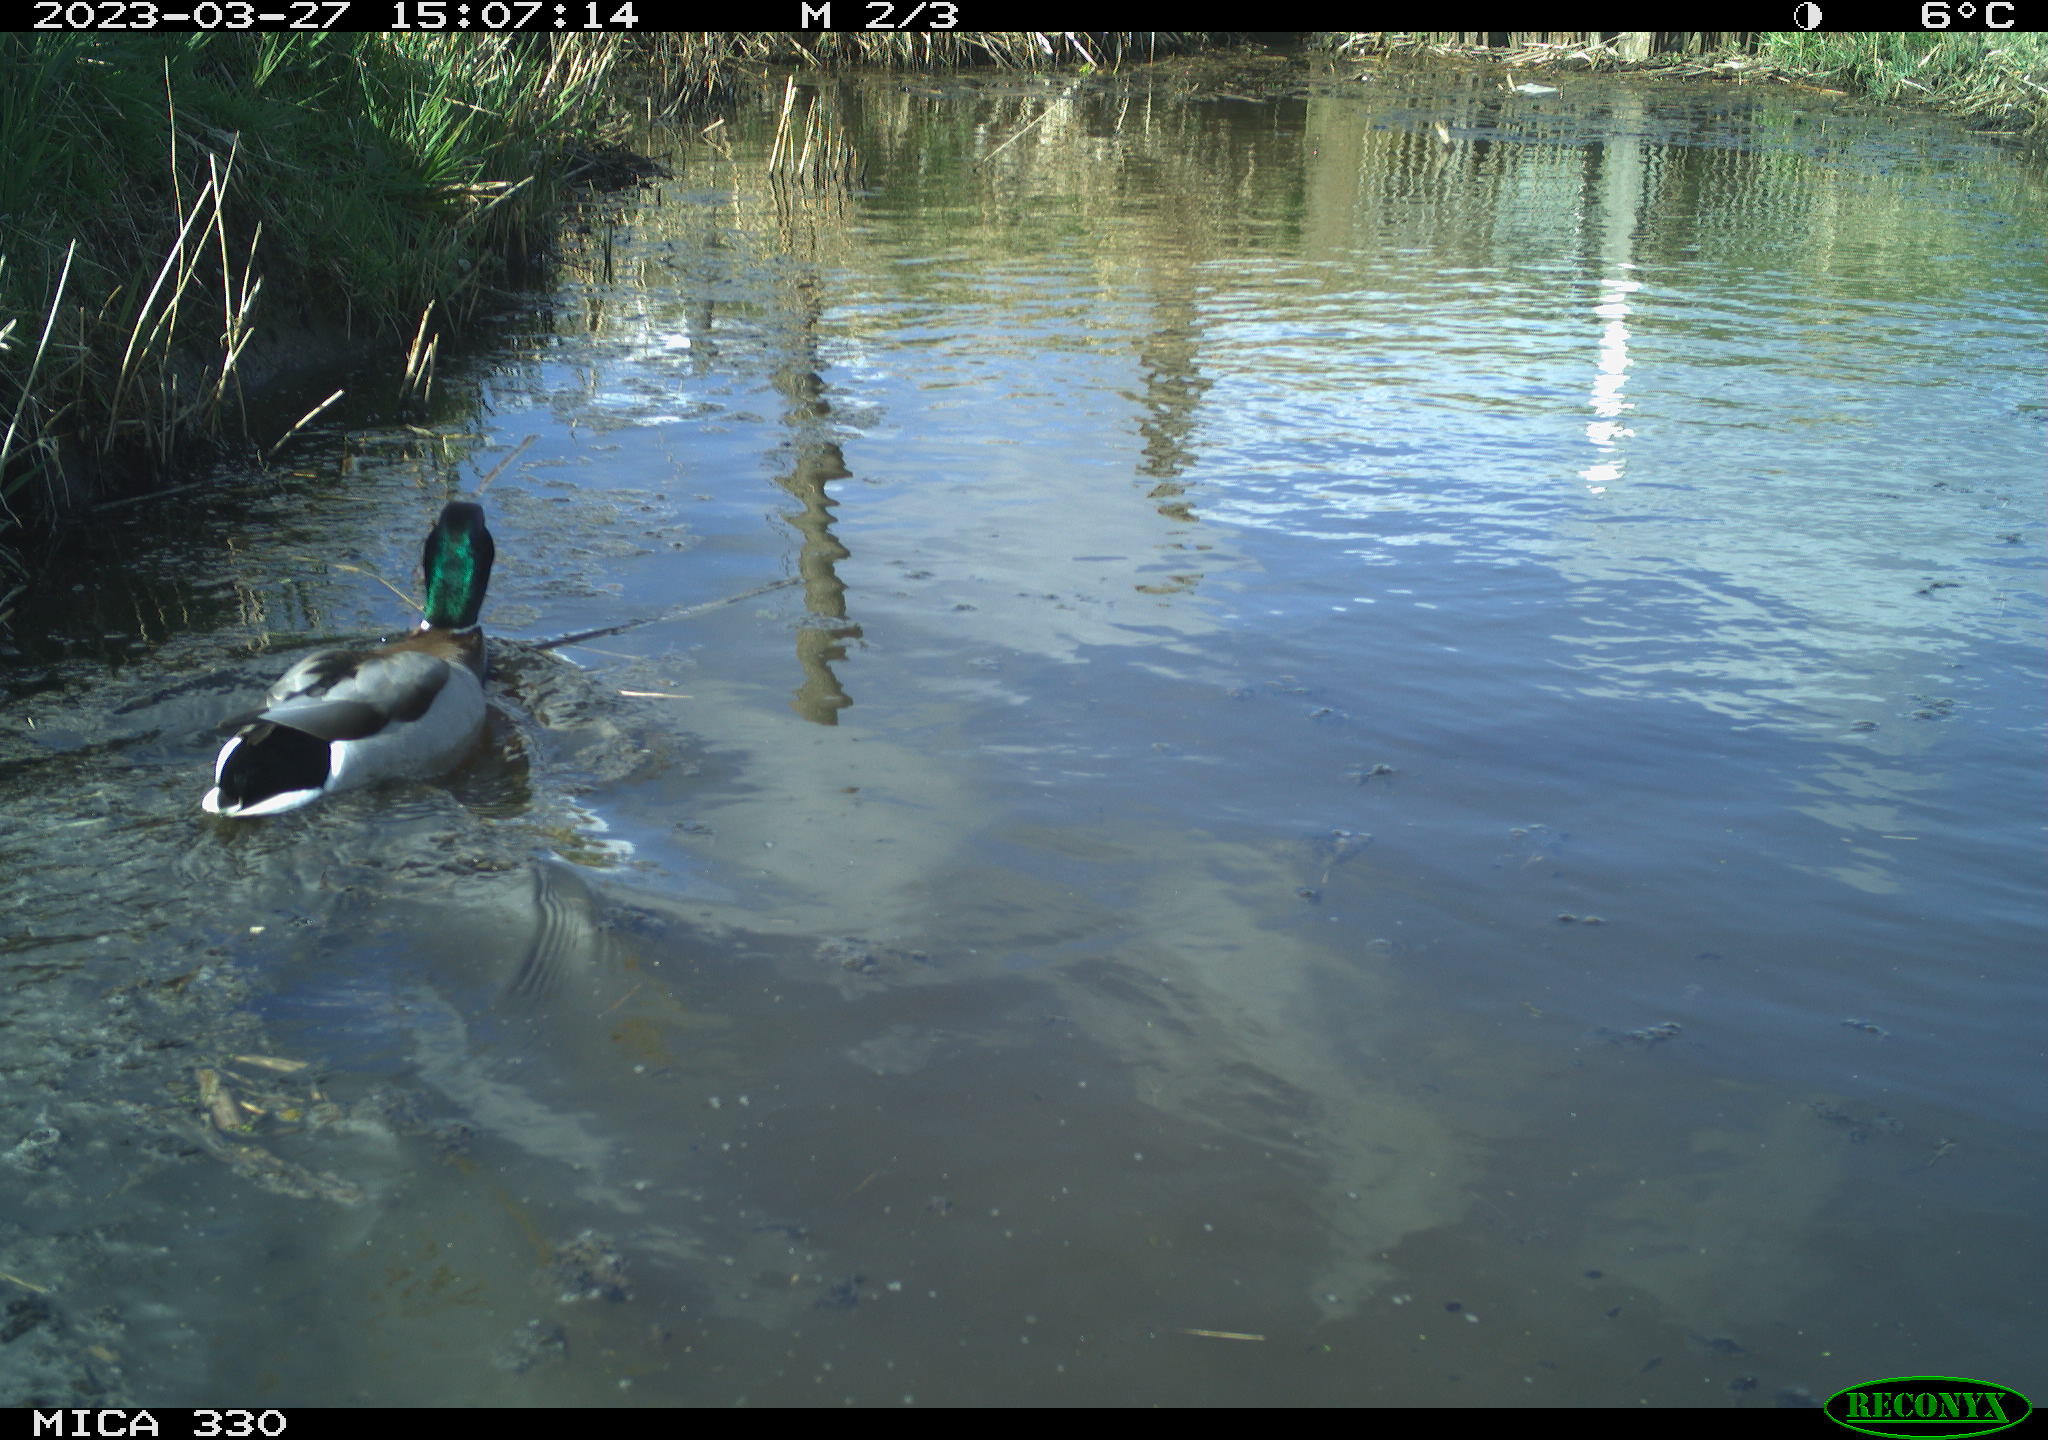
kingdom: Animalia
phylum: Chordata
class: Aves
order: Anseriformes
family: Anatidae
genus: Anas
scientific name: Anas
